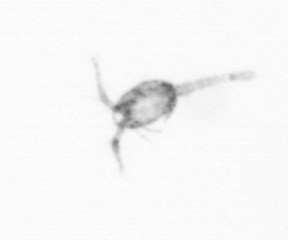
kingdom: Animalia
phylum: Arthropoda
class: Copepoda
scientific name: Copepoda
